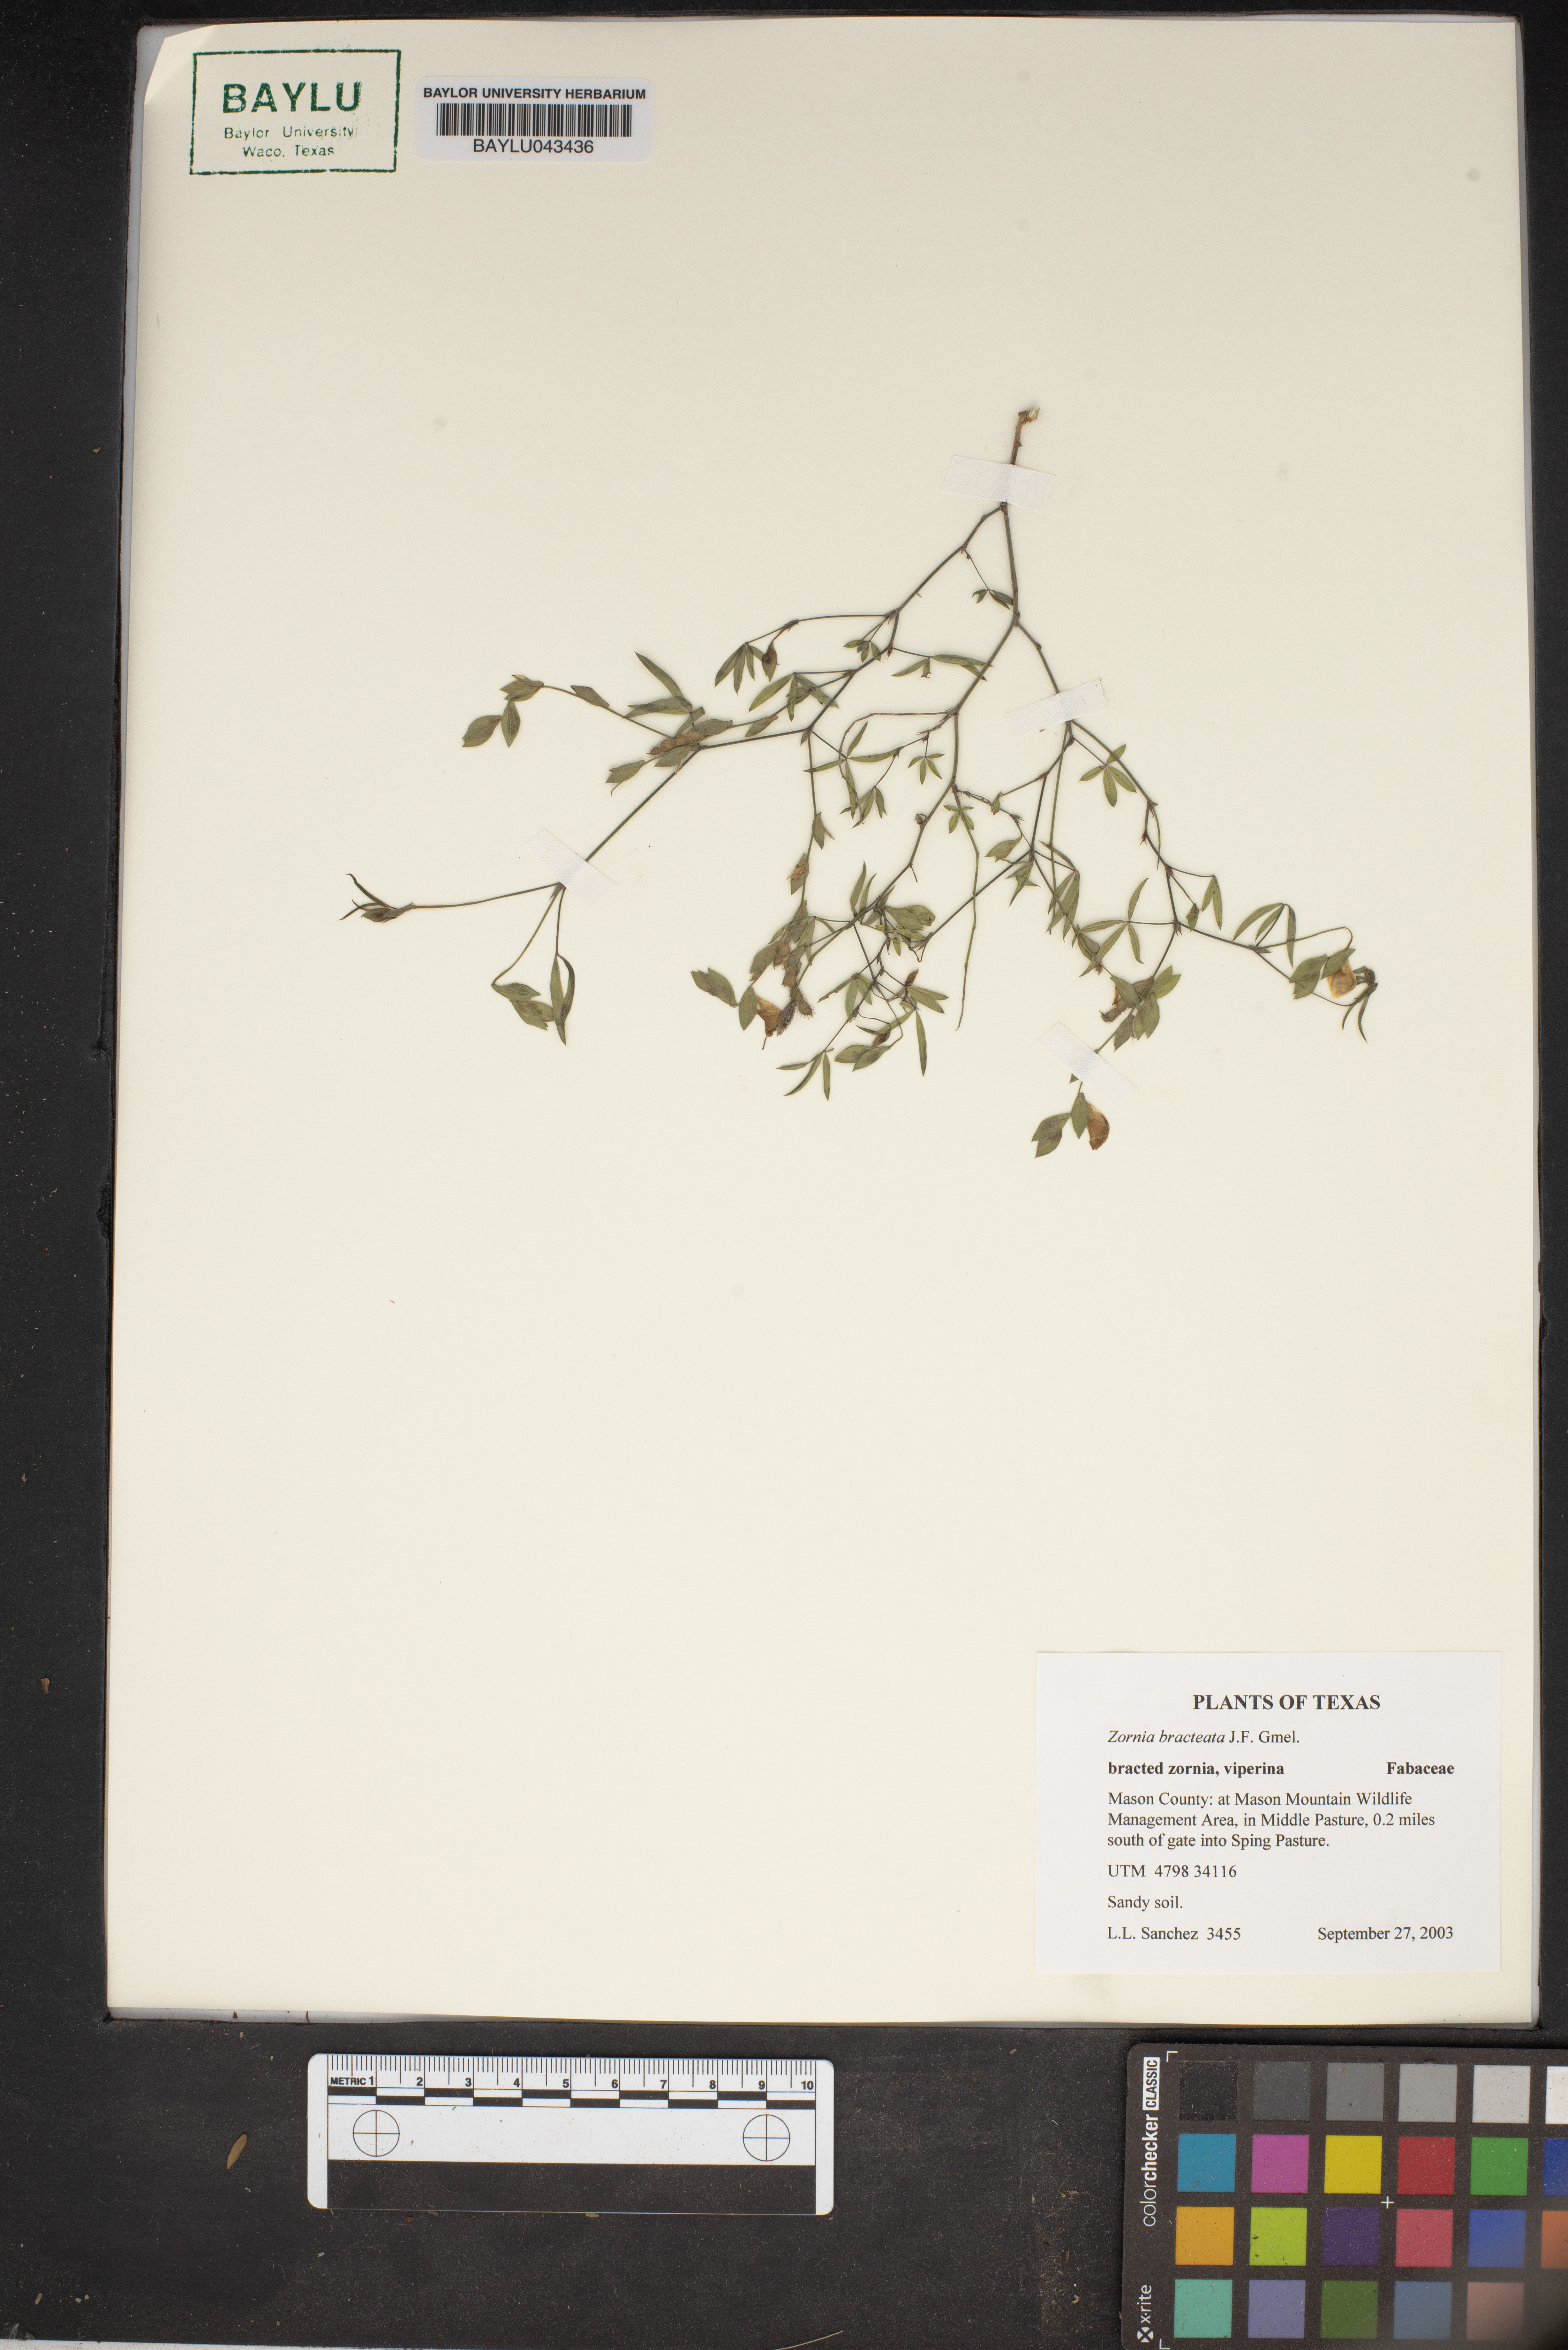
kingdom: Plantae
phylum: Tracheophyta
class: Magnoliopsida
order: Fabales
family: Fabaceae
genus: Zornia
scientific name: Zornia bracteata
